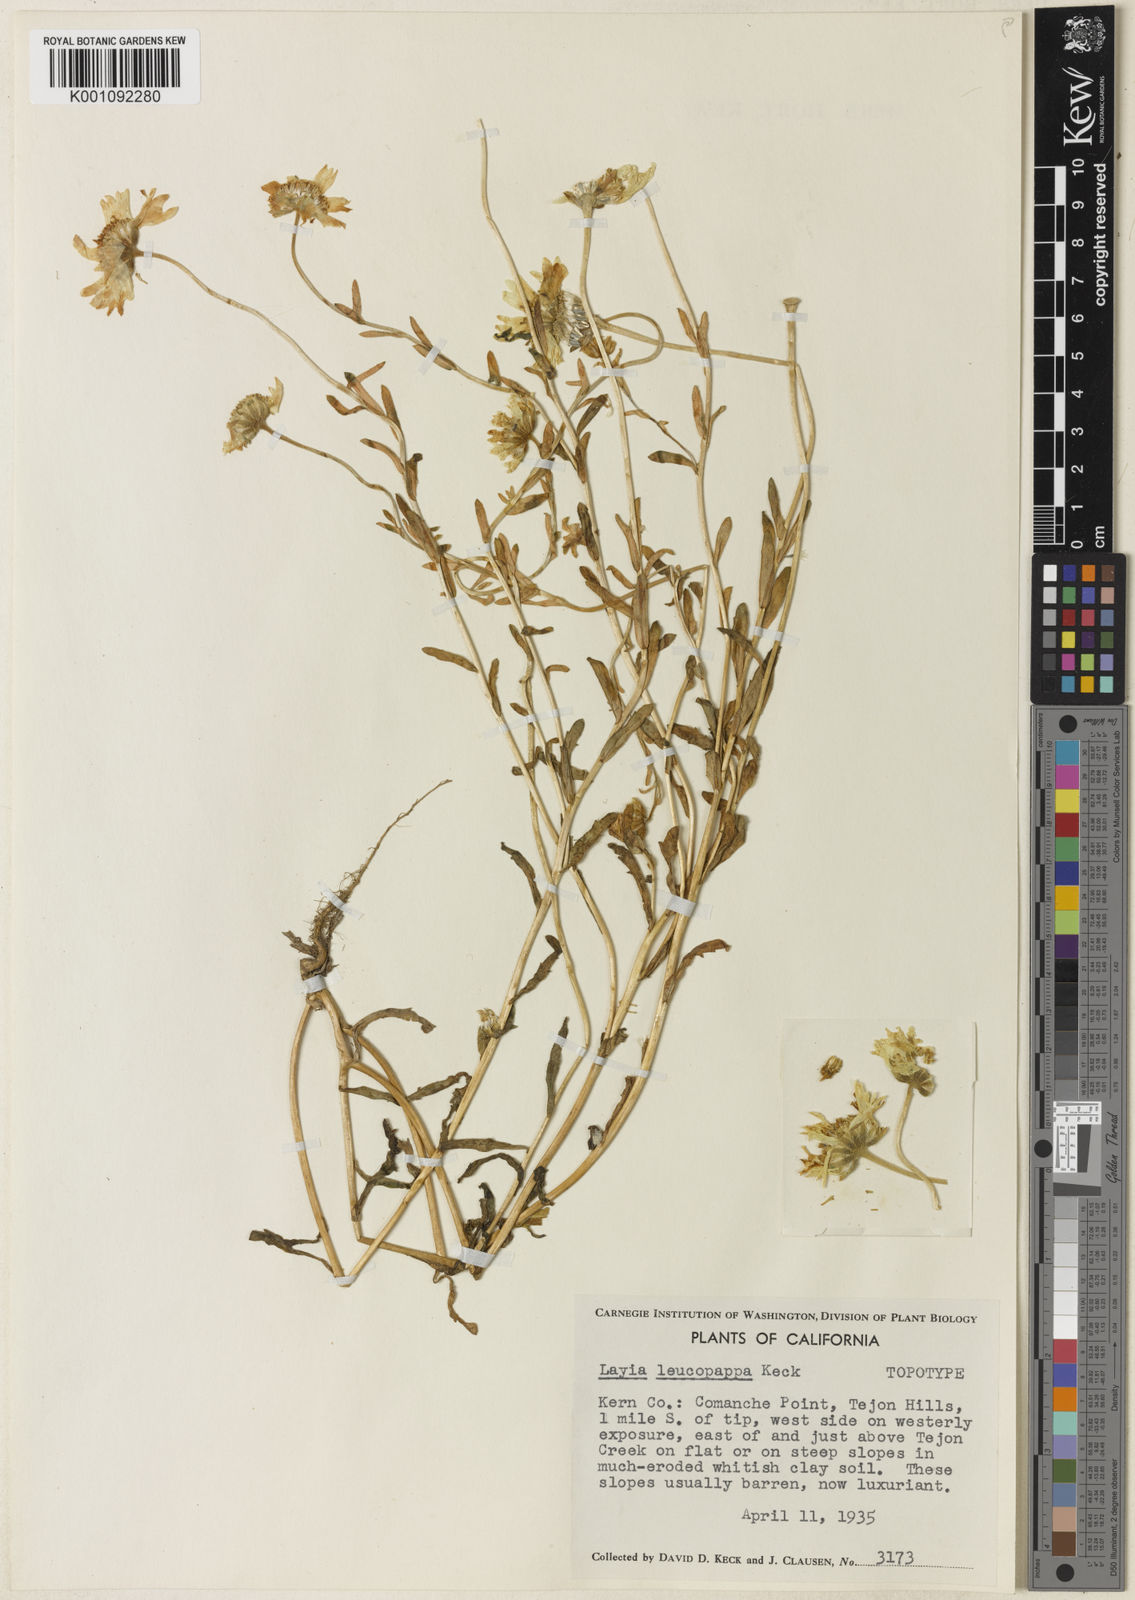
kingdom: Plantae
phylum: Tracheophyta
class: Magnoliopsida
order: Asterales
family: Asteraceae
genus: Layia
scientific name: Layia leucopappa
